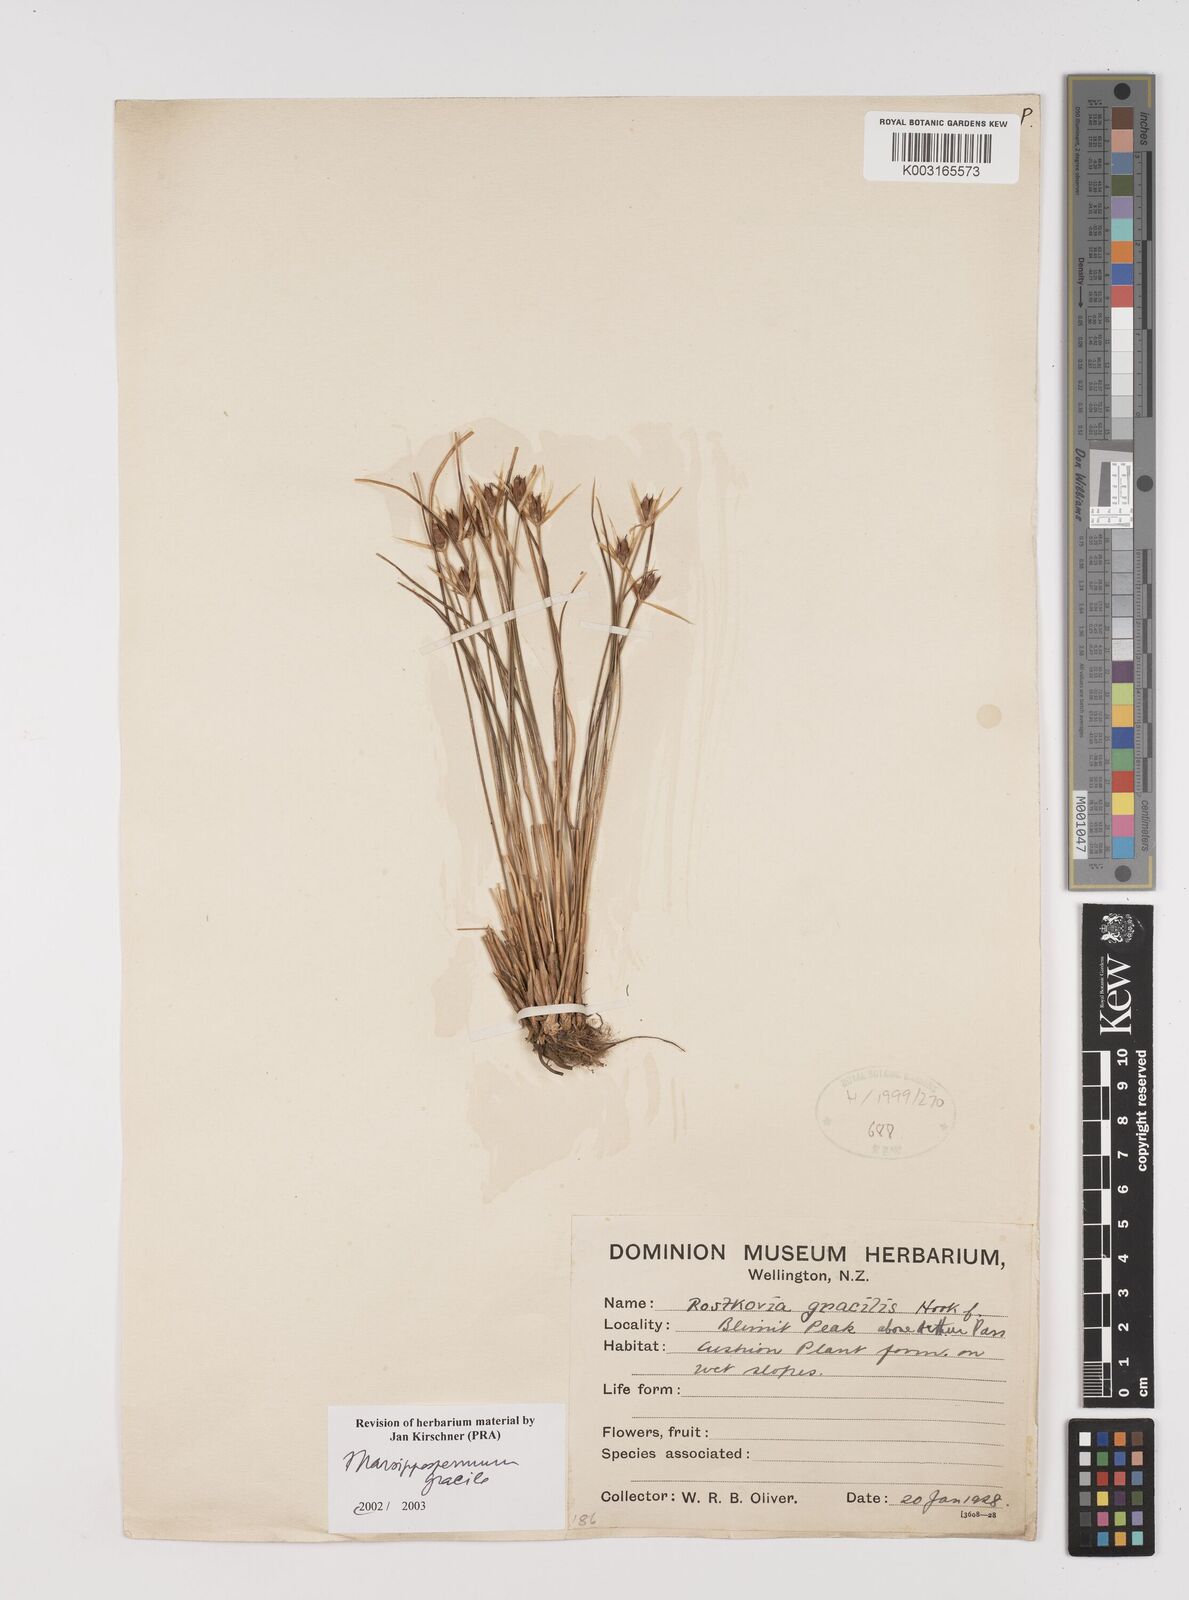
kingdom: Plantae
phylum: Tracheophyta
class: Liliopsida
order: Poales
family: Juncaceae
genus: Marsippospermum
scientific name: Marsippospermum gracile
